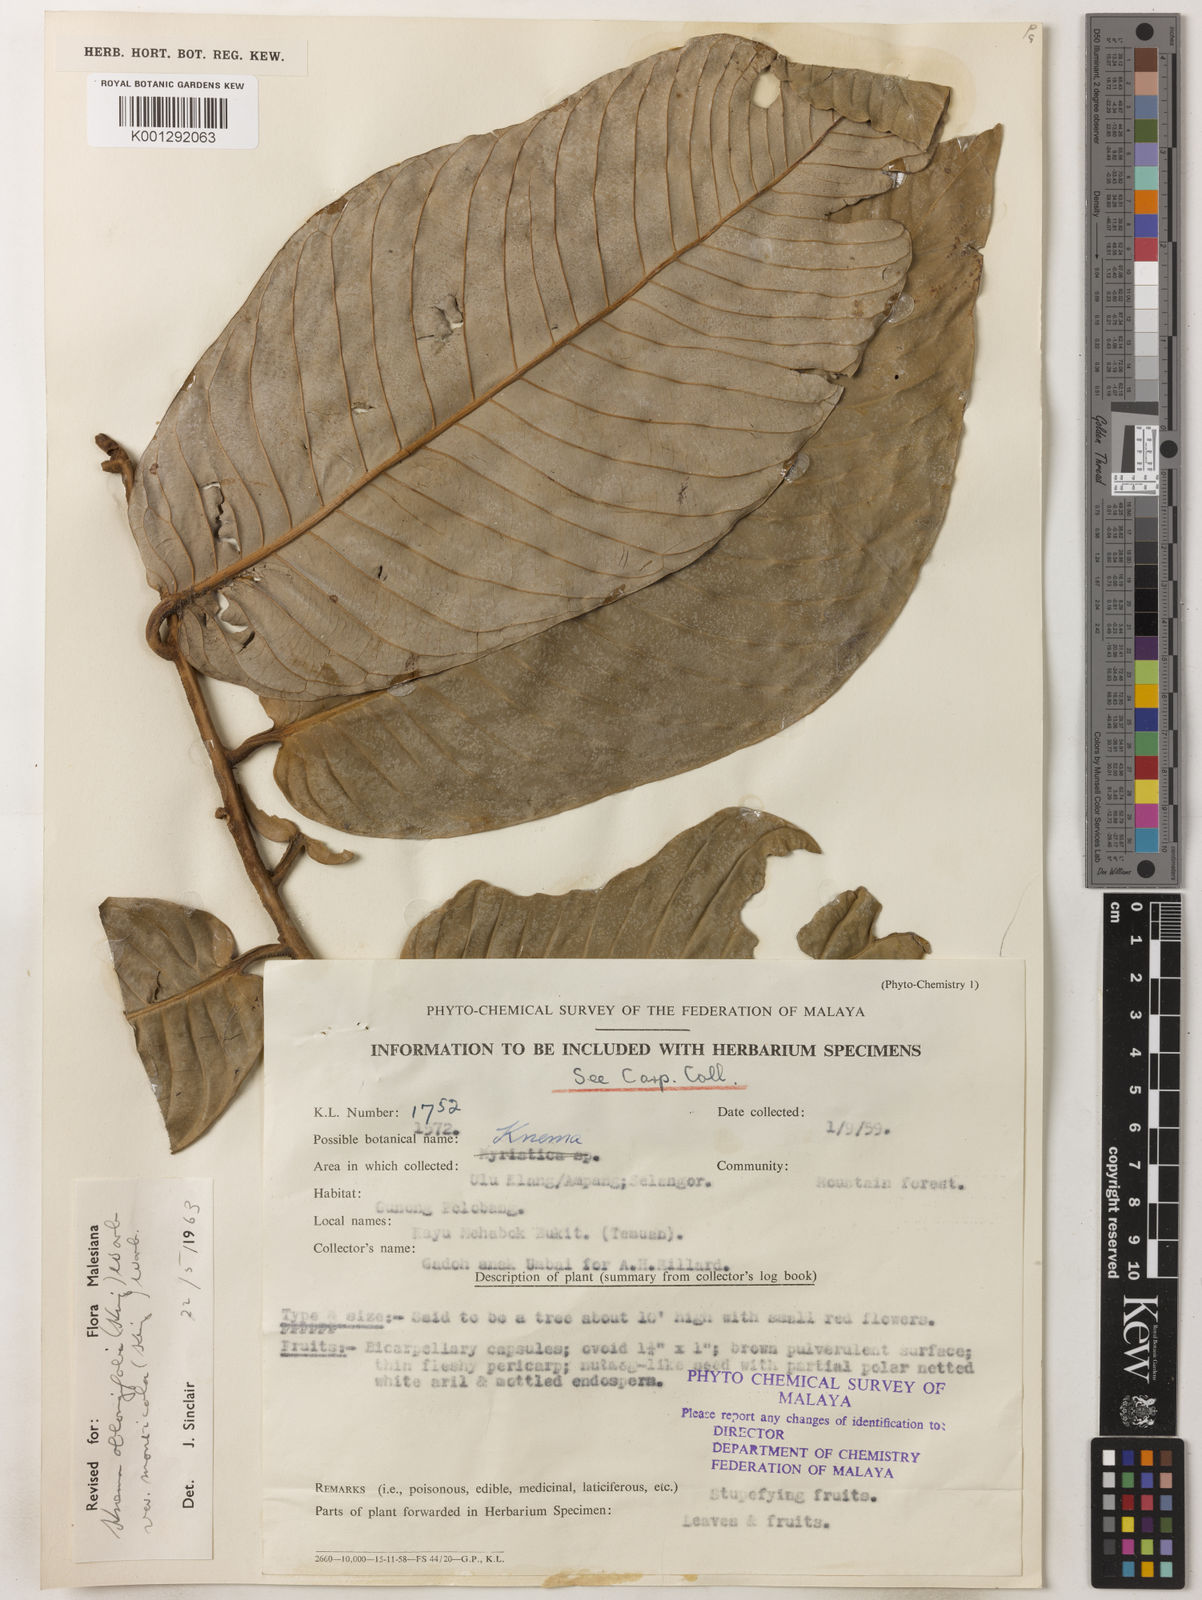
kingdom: Plantae
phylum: Tracheophyta
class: Magnoliopsida
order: Magnoliales
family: Myristicaceae
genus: Knema
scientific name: Knema
